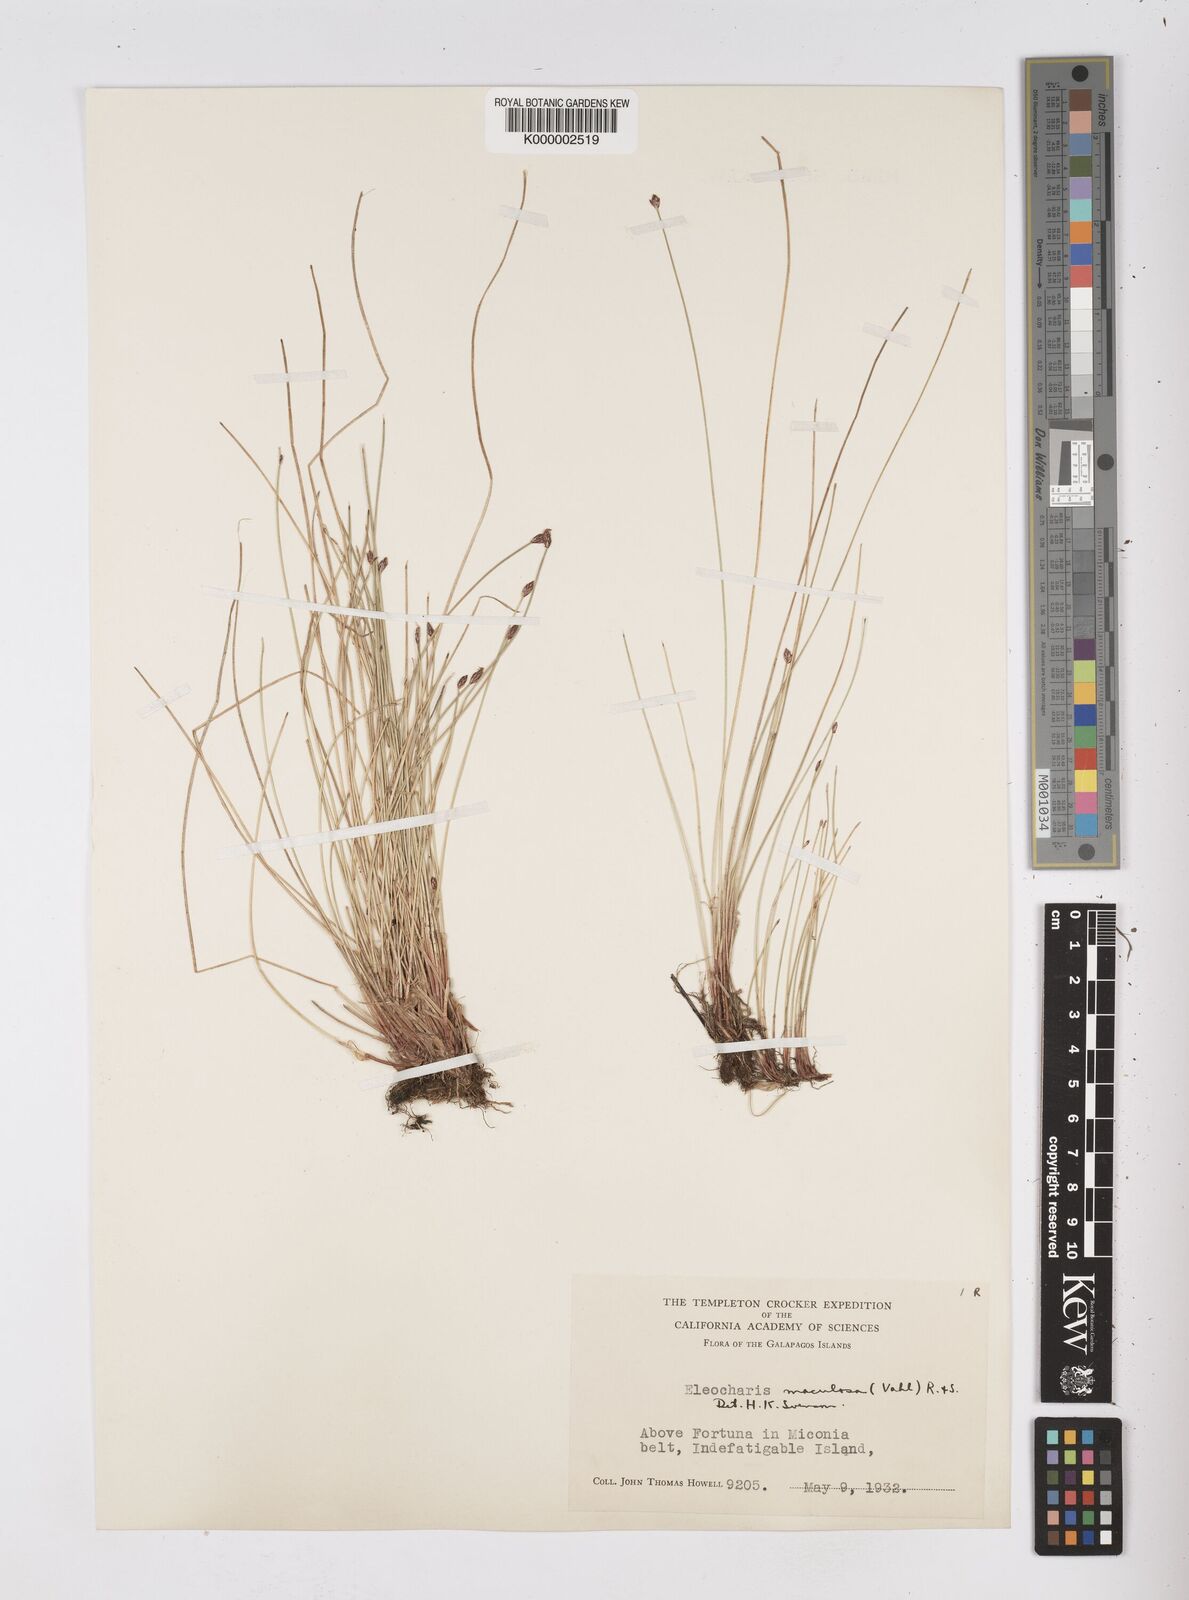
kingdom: Plantae
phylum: Tracheophyta
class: Liliopsida
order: Poales
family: Cyperaceae
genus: Eleocharis
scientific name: Eleocharis maculosa
